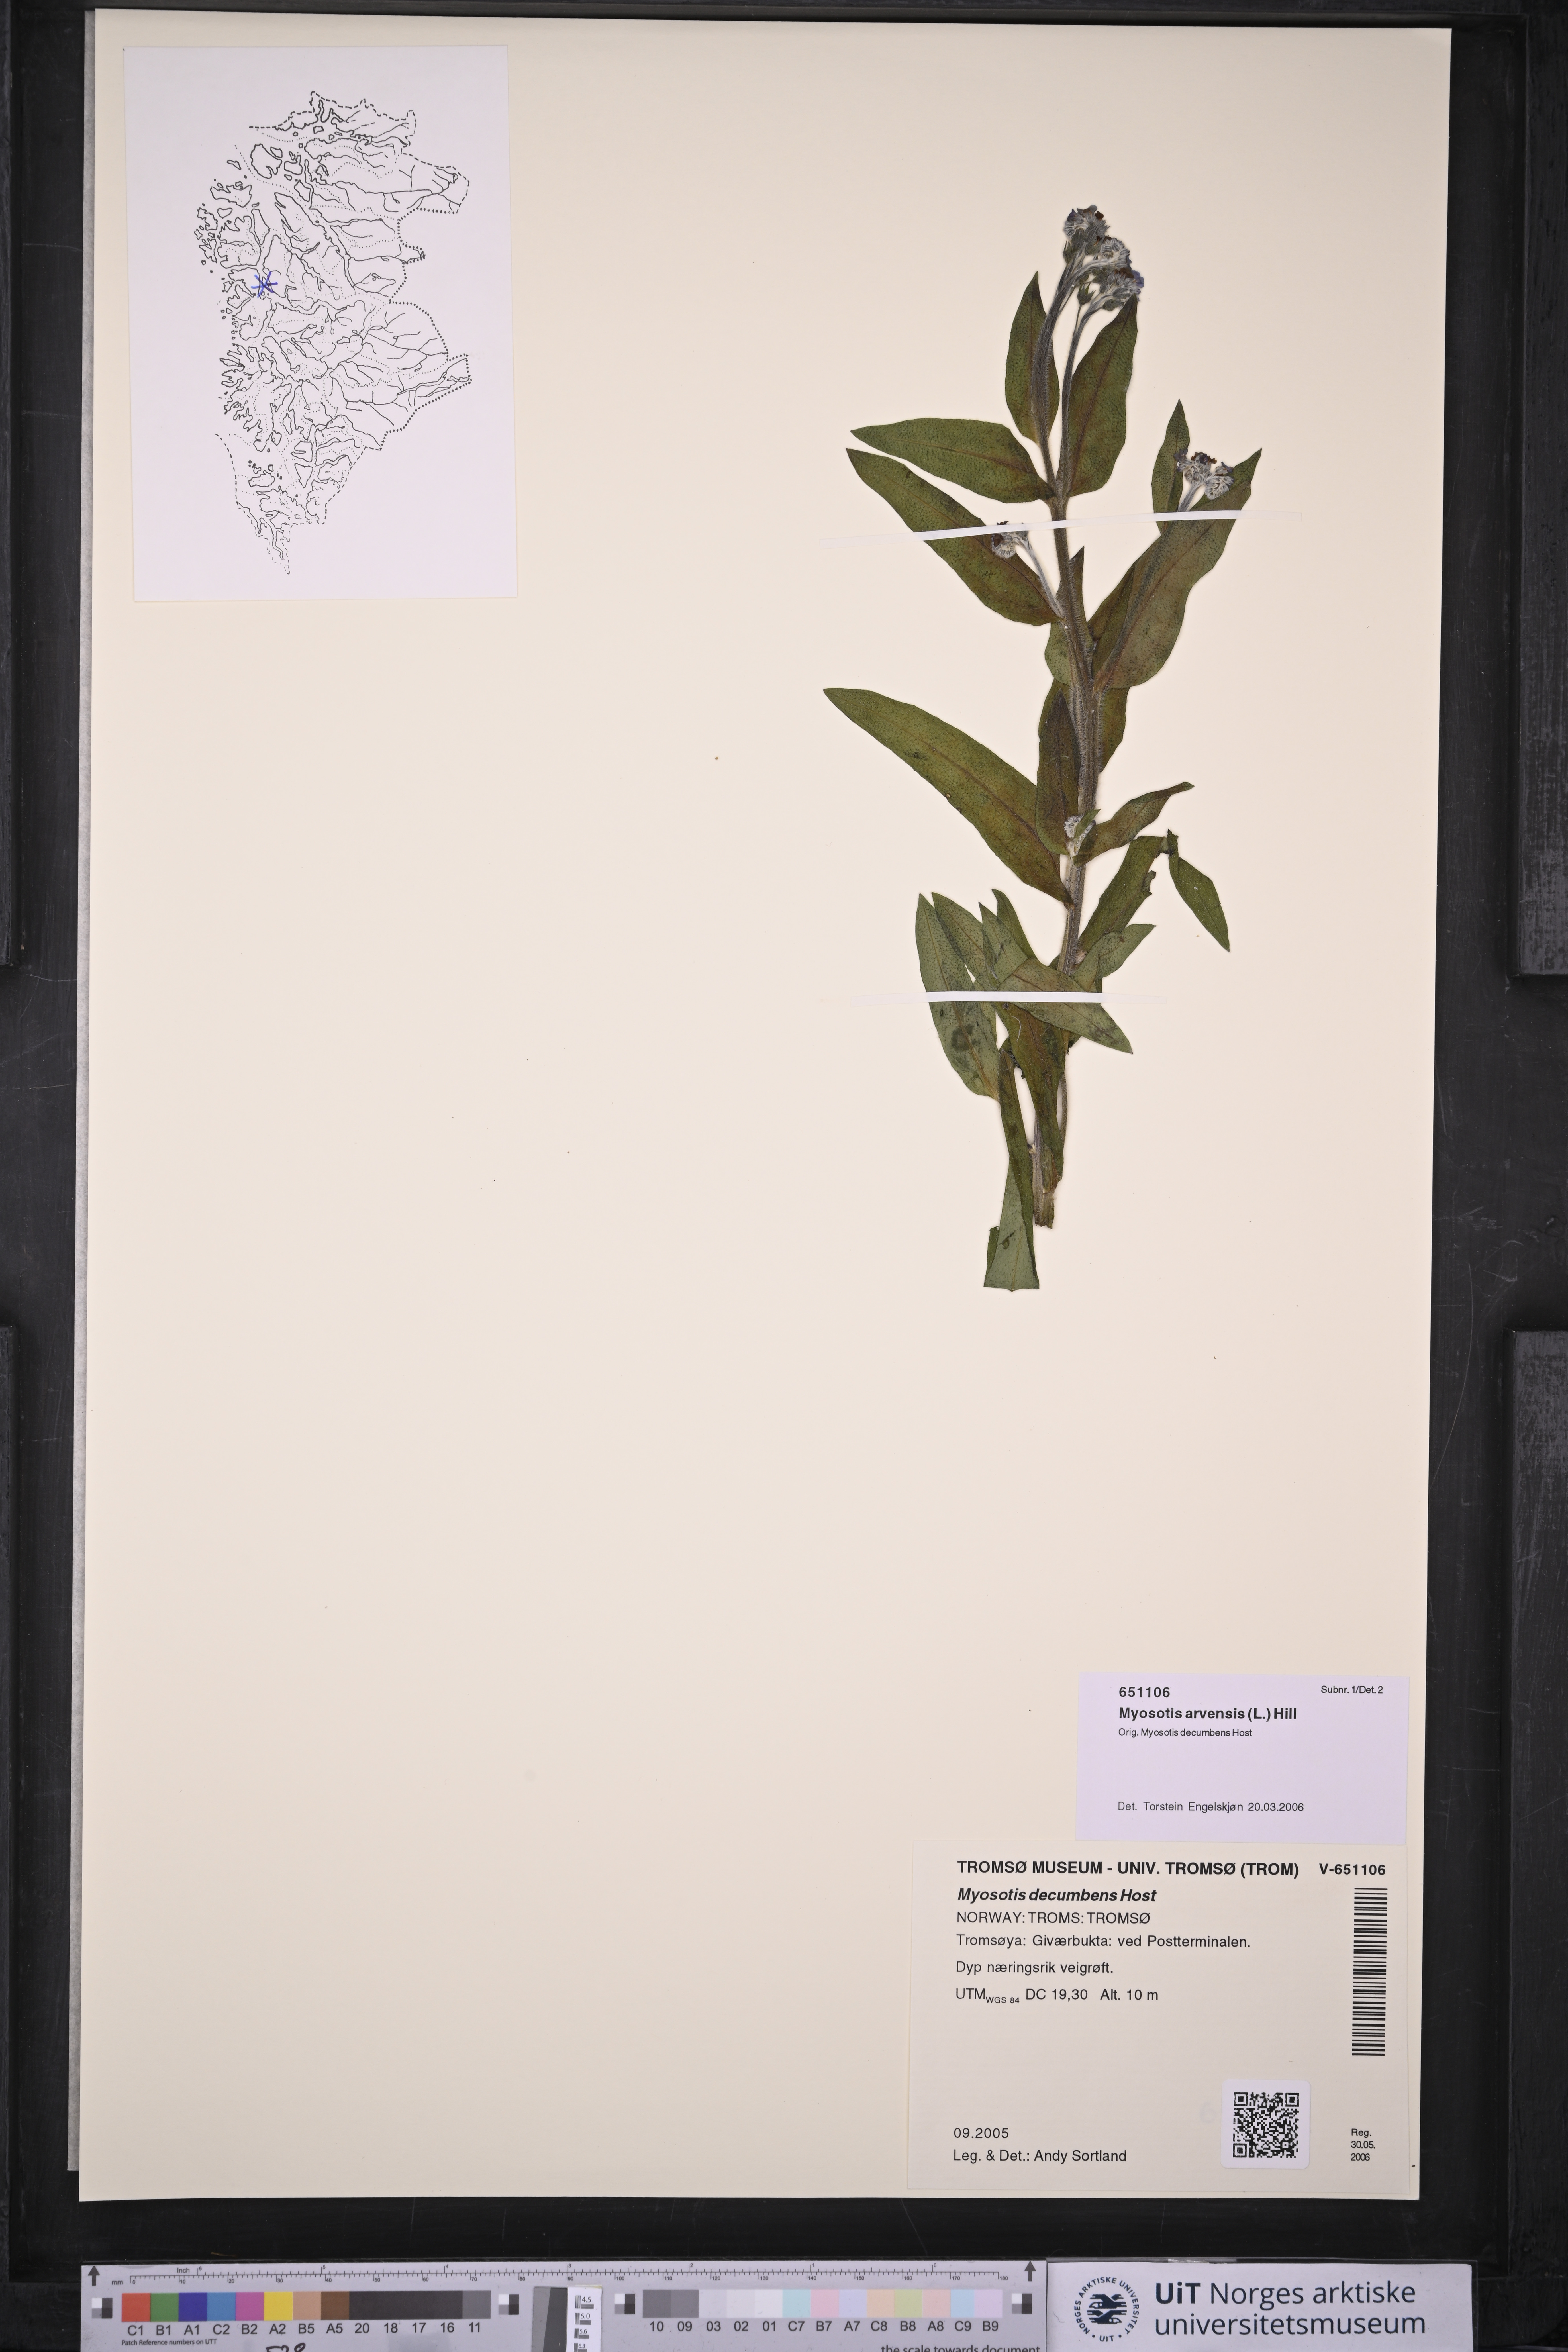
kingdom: Plantae
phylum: Tracheophyta
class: Magnoliopsida
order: Boraginales
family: Boraginaceae
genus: Myosotis
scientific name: Myosotis arvensis
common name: Field forget-me-not
